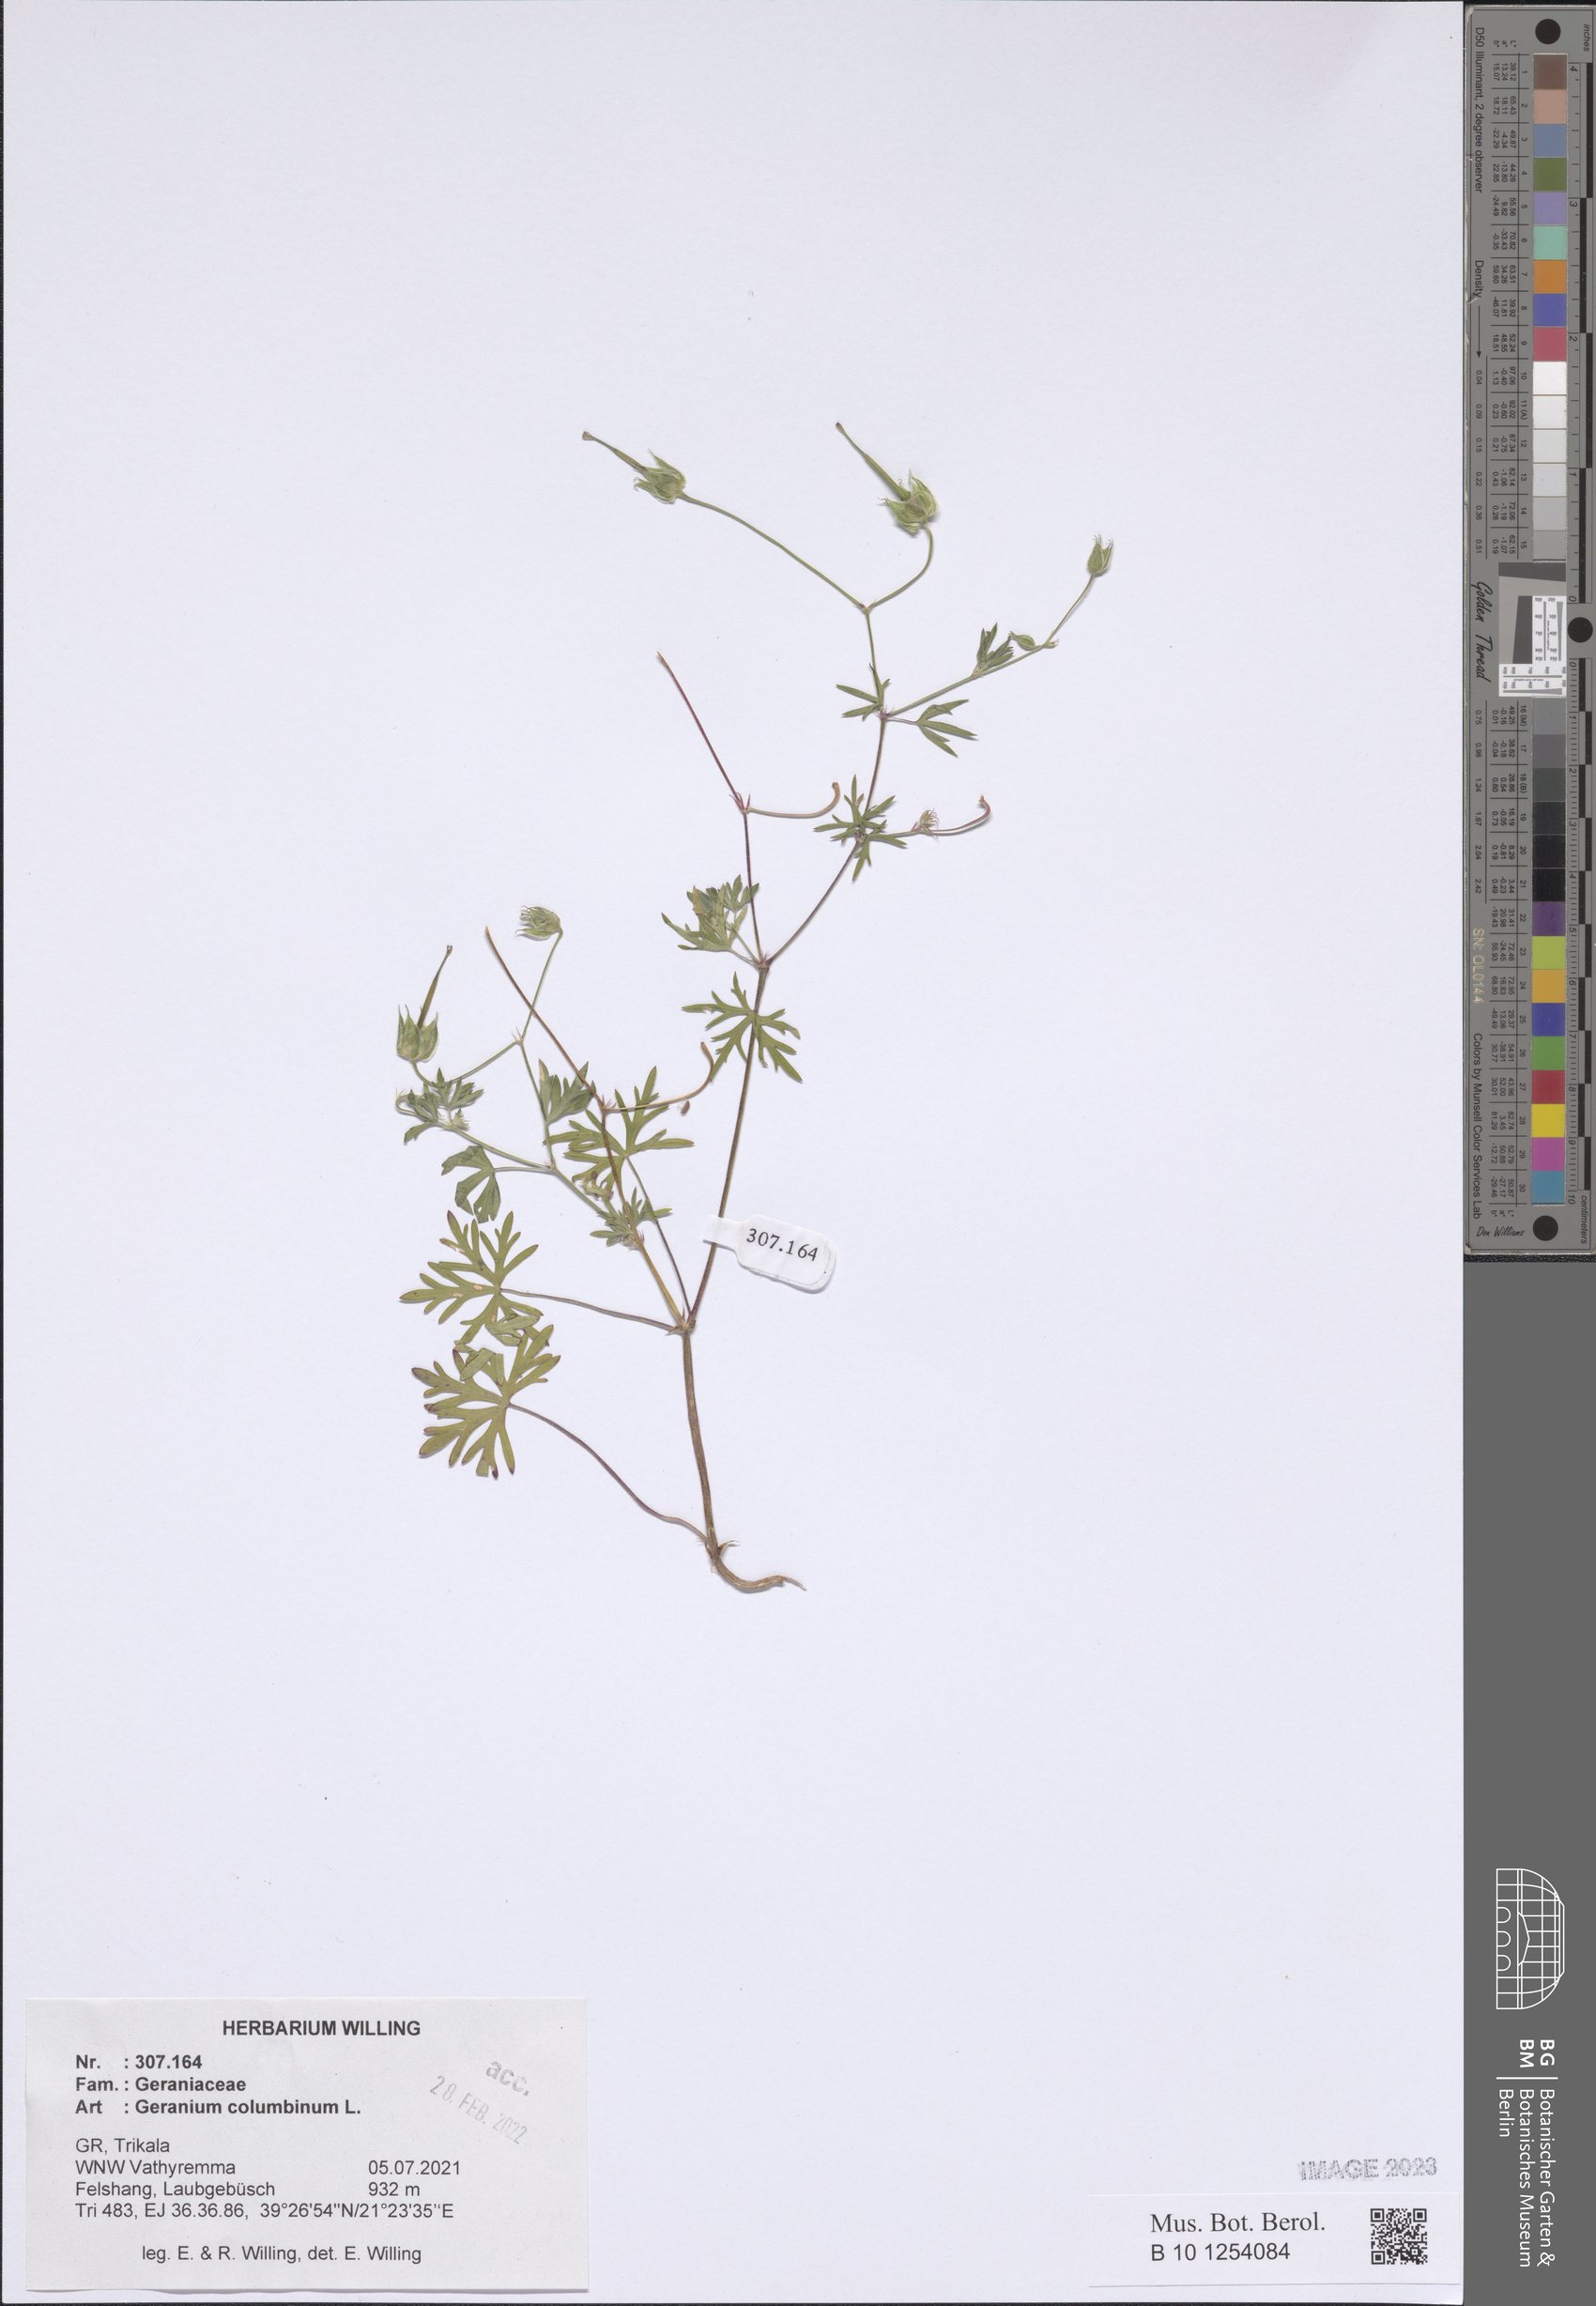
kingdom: Plantae
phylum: Tracheophyta
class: Magnoliopsida
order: Geraniales
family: Geraniaceae
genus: Geranium
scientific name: Geranium columbinum
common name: Long-stalked crane's-bill
